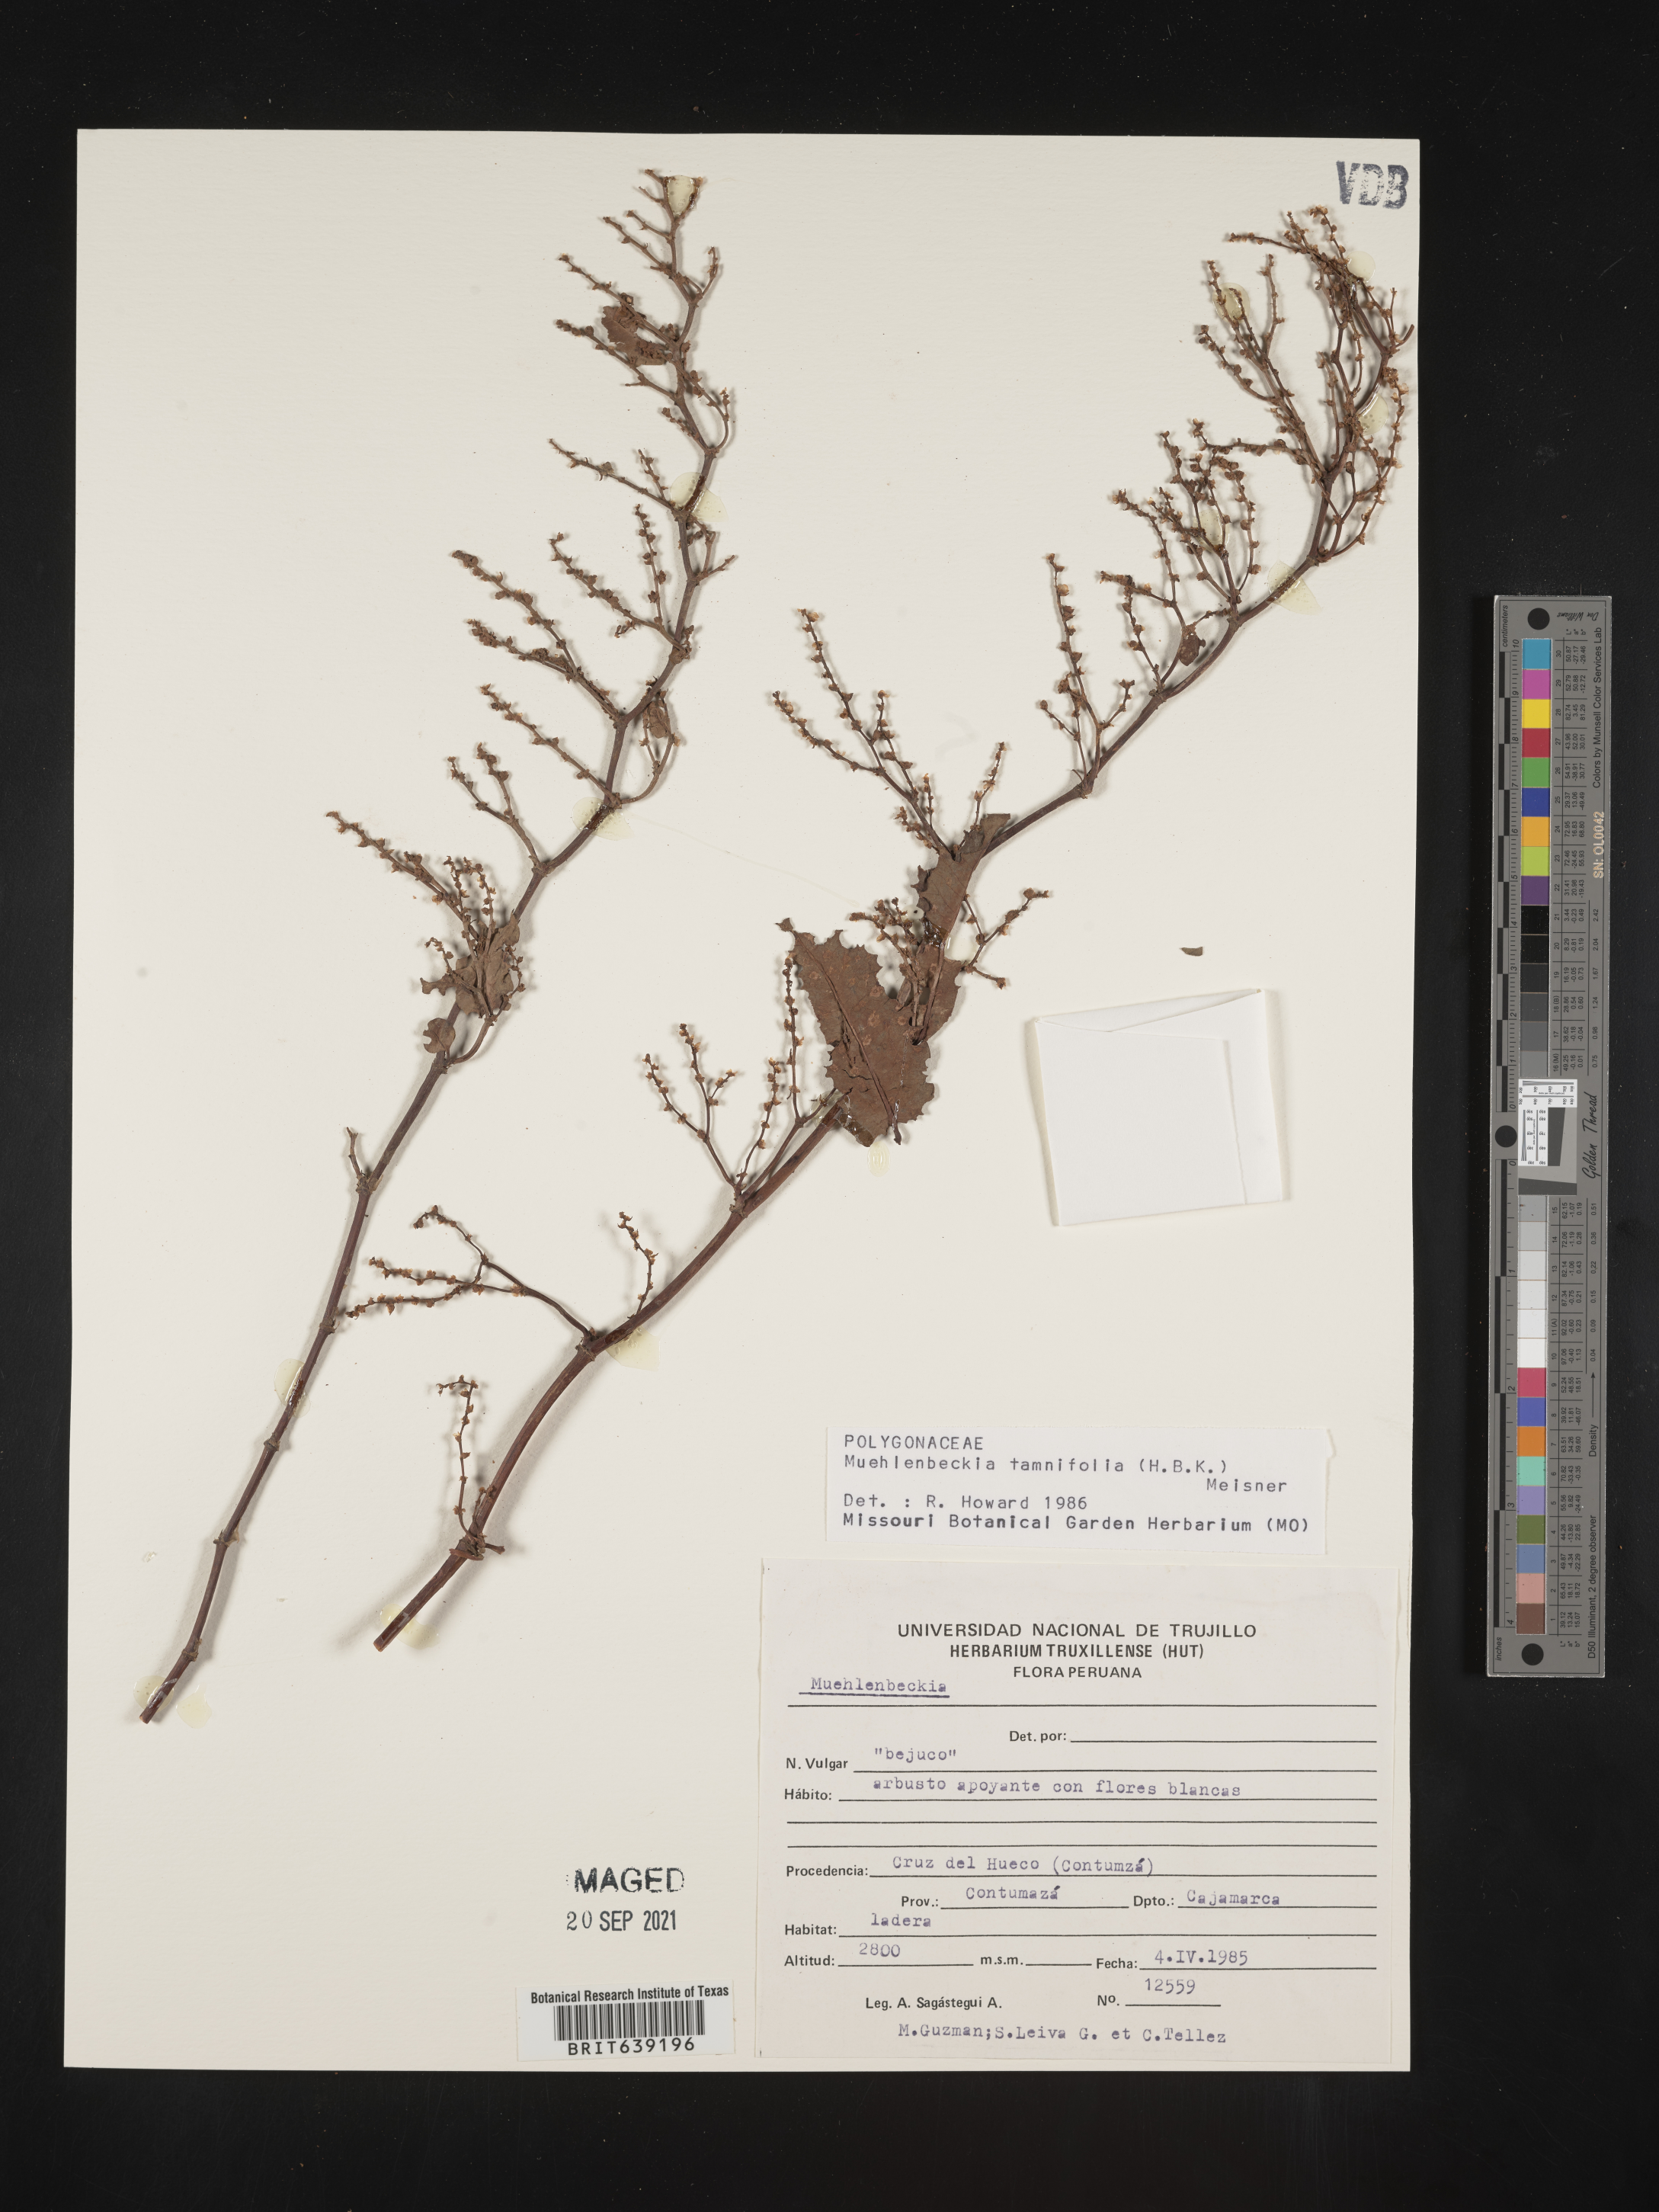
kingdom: Plantae
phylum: Tracheophyta
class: Magnoliopsida
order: Caryophyllales
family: Polygonaceae
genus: Muehlenbeckia
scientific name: Muehlenbeckia
